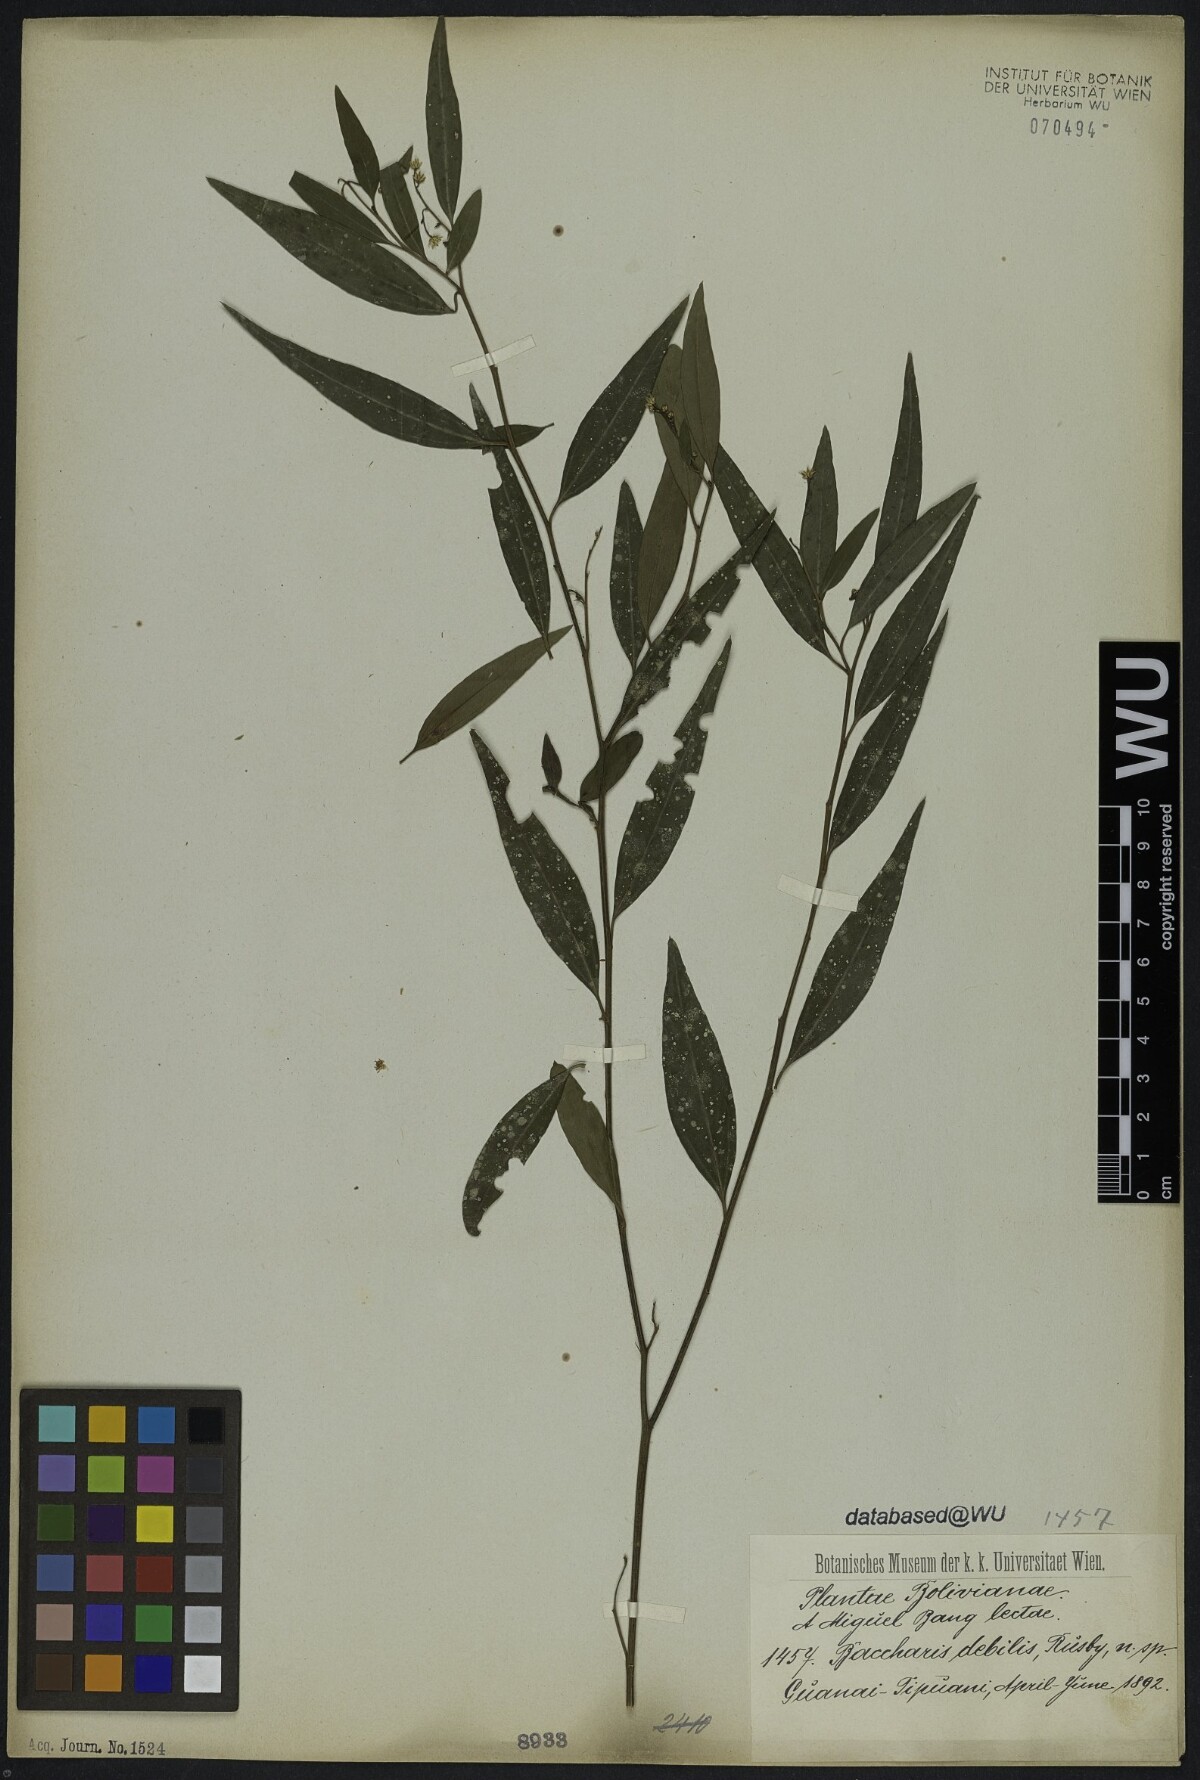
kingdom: Plantae
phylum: Tracheophyta
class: Magnoliopsida
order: Asterales
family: Asteraceae
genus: Baccharis
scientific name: Baccharis trinervis
